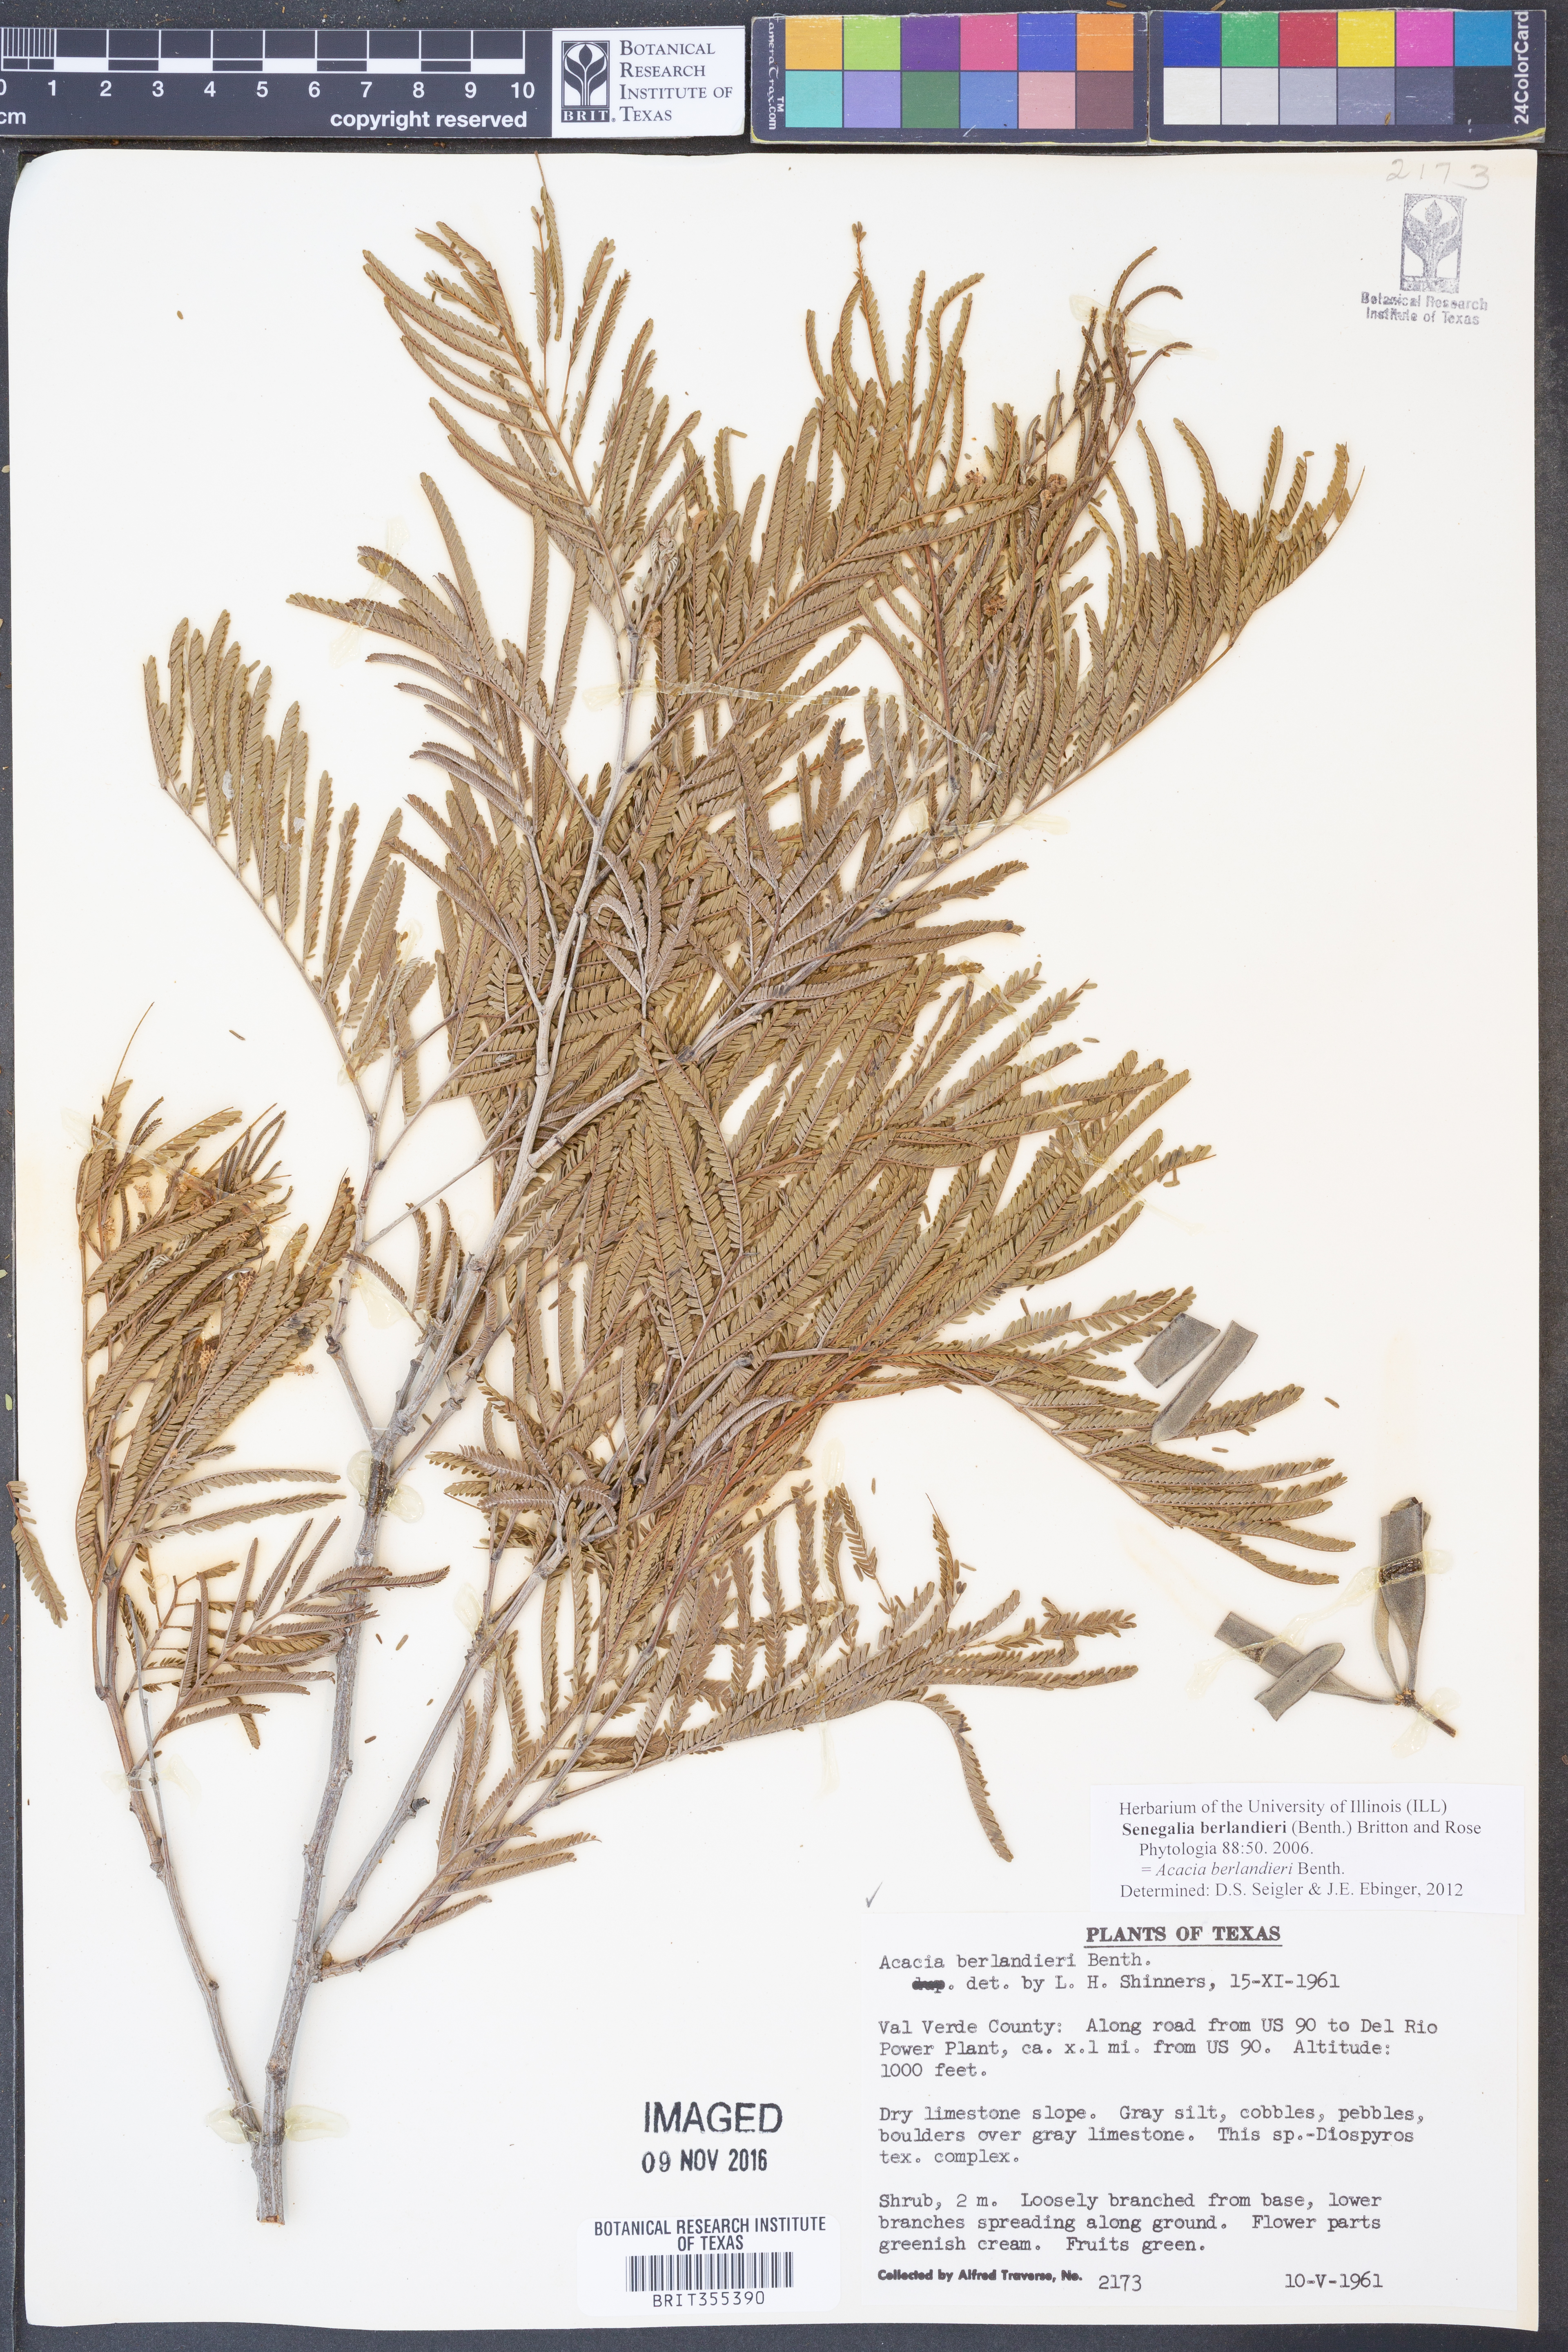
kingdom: Plantae
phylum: Tracheophyta
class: Magnoliopsida
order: Fabales
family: Fabaceae
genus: Senegalia
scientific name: Senegalia berlandieri
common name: Berlandier acacia
